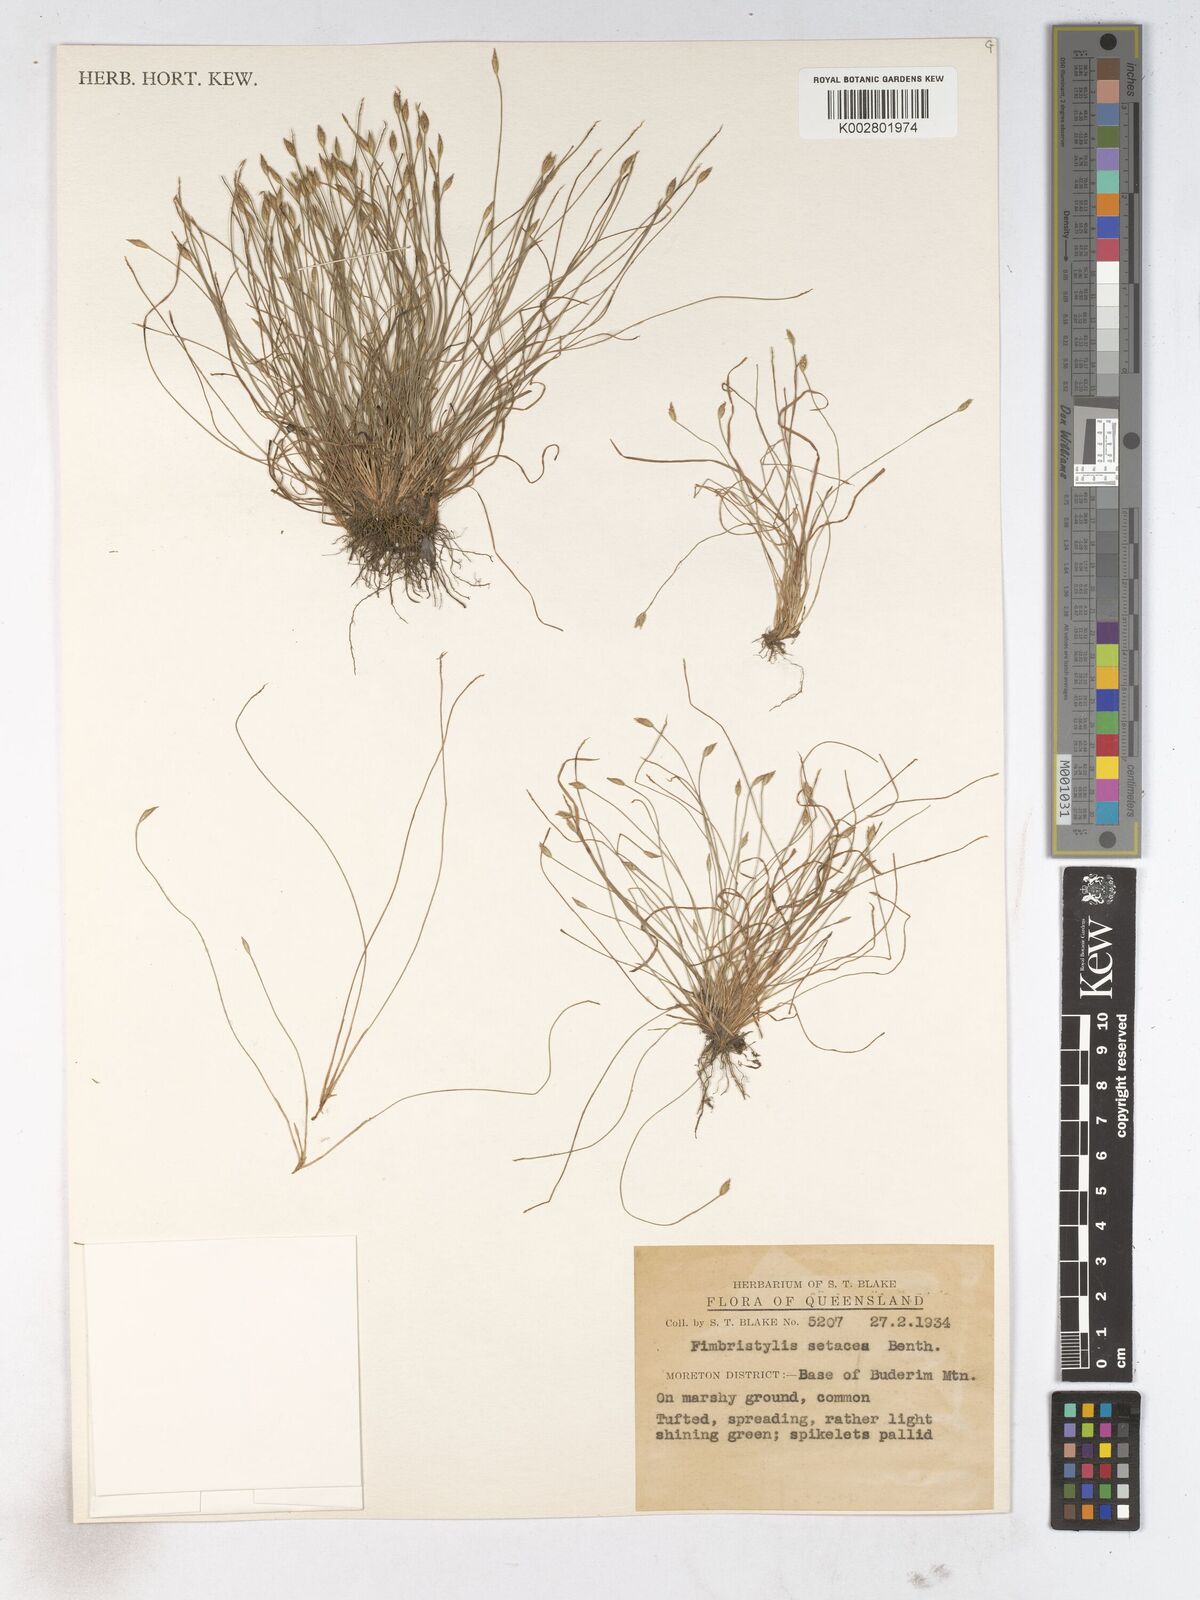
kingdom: Plantae
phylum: Tracheophyta
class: Liliopsida
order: Poales
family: Cyperaceae
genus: Fimbristylis
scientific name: Fimbristylis acicularis
